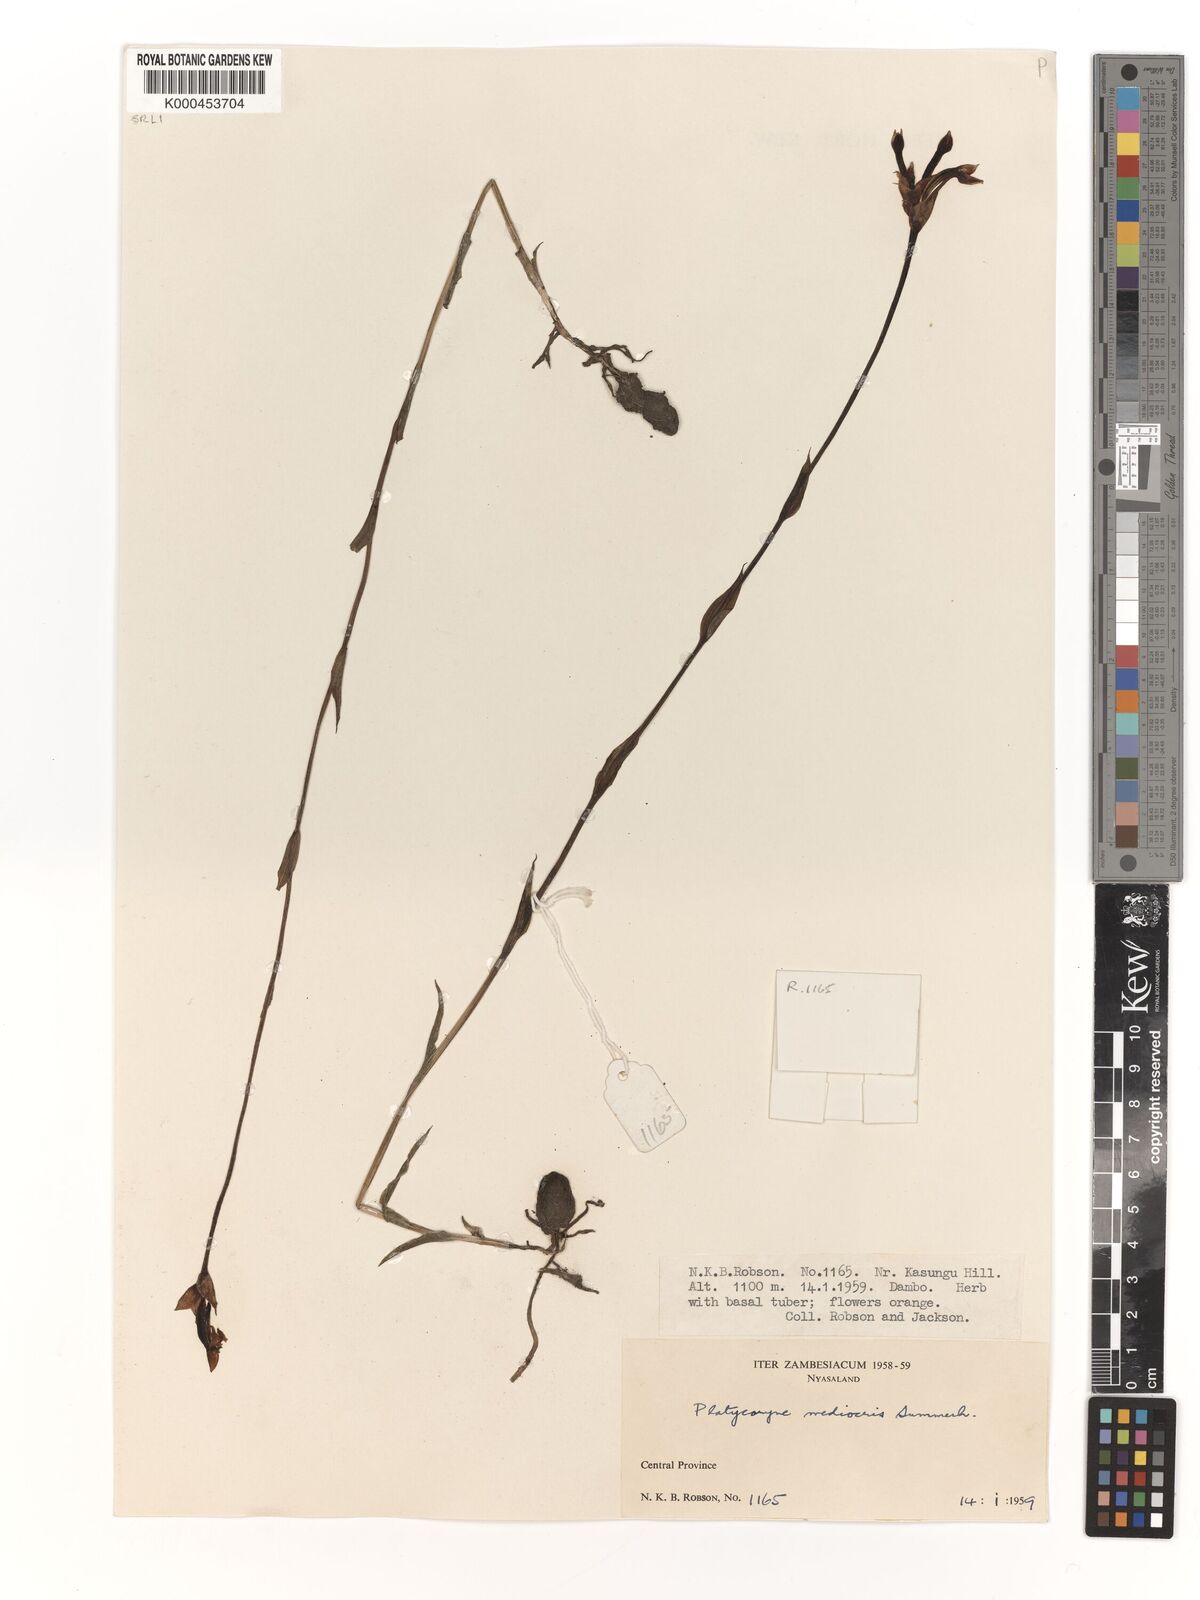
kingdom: Plantae
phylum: Tracheophyta
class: Liliopsida
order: Asparagales
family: Orchidaceae
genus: Platycoryne
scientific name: Platycoryne mediocris
